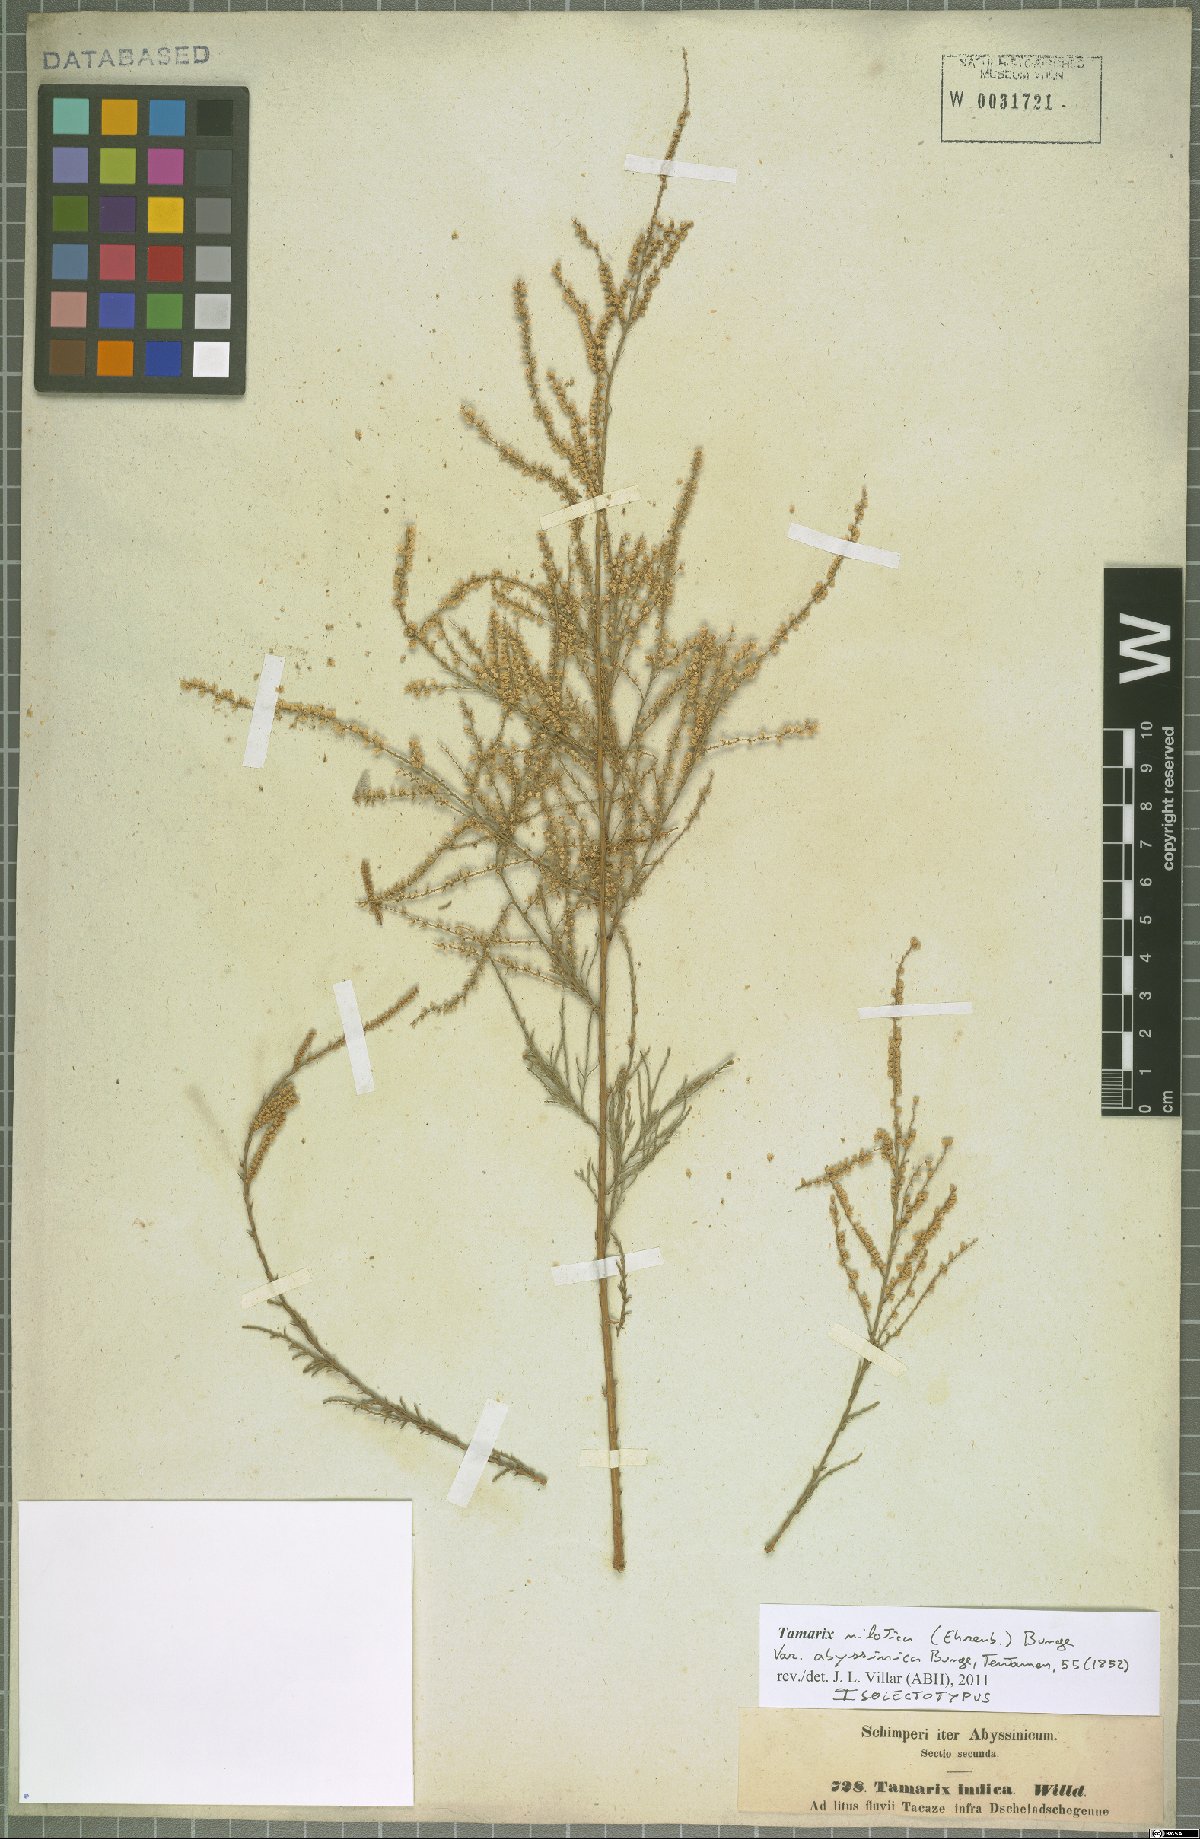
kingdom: Plantae
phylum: Tracheophyta
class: Magnoliopsida
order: Caryophyllales
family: Tamaricaceae
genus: Tamarix
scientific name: Tamarix nilotica
